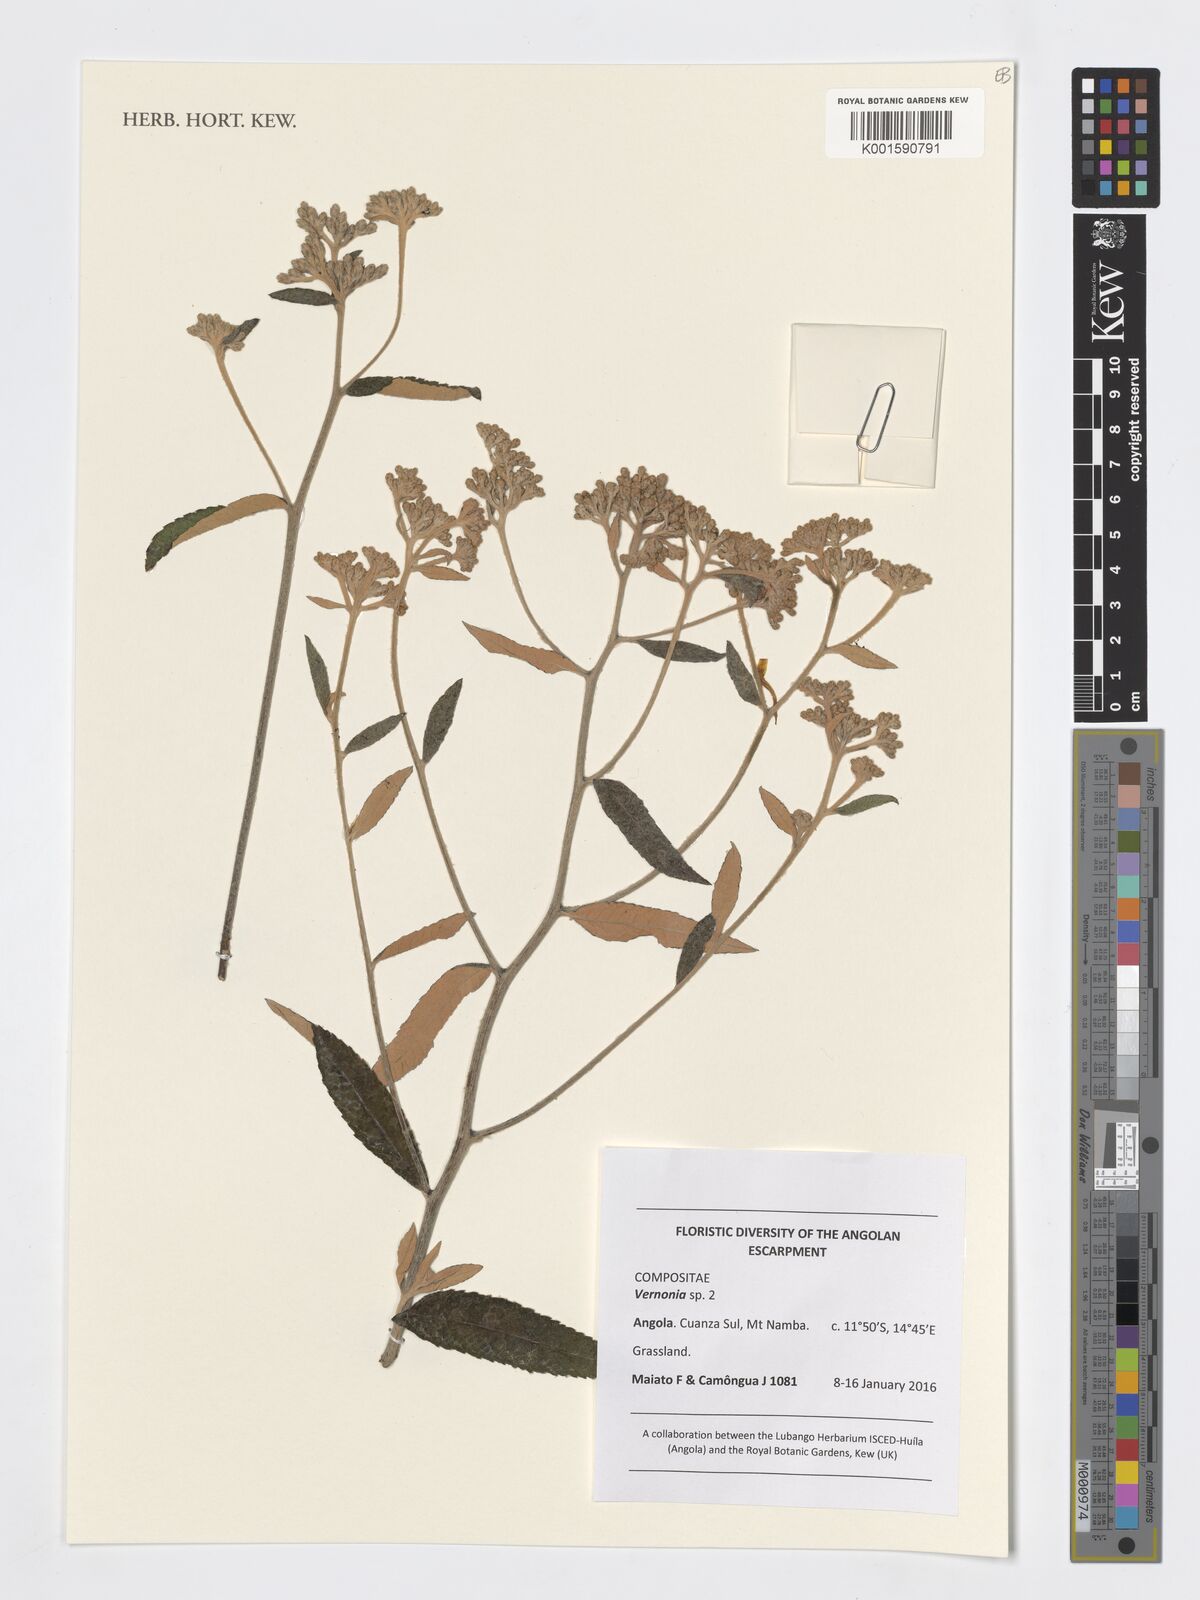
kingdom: Plantae
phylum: Tracheophyta
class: Magnoliopsida
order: Asterales
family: Asteraceae
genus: Vernonia
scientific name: Vernonia
